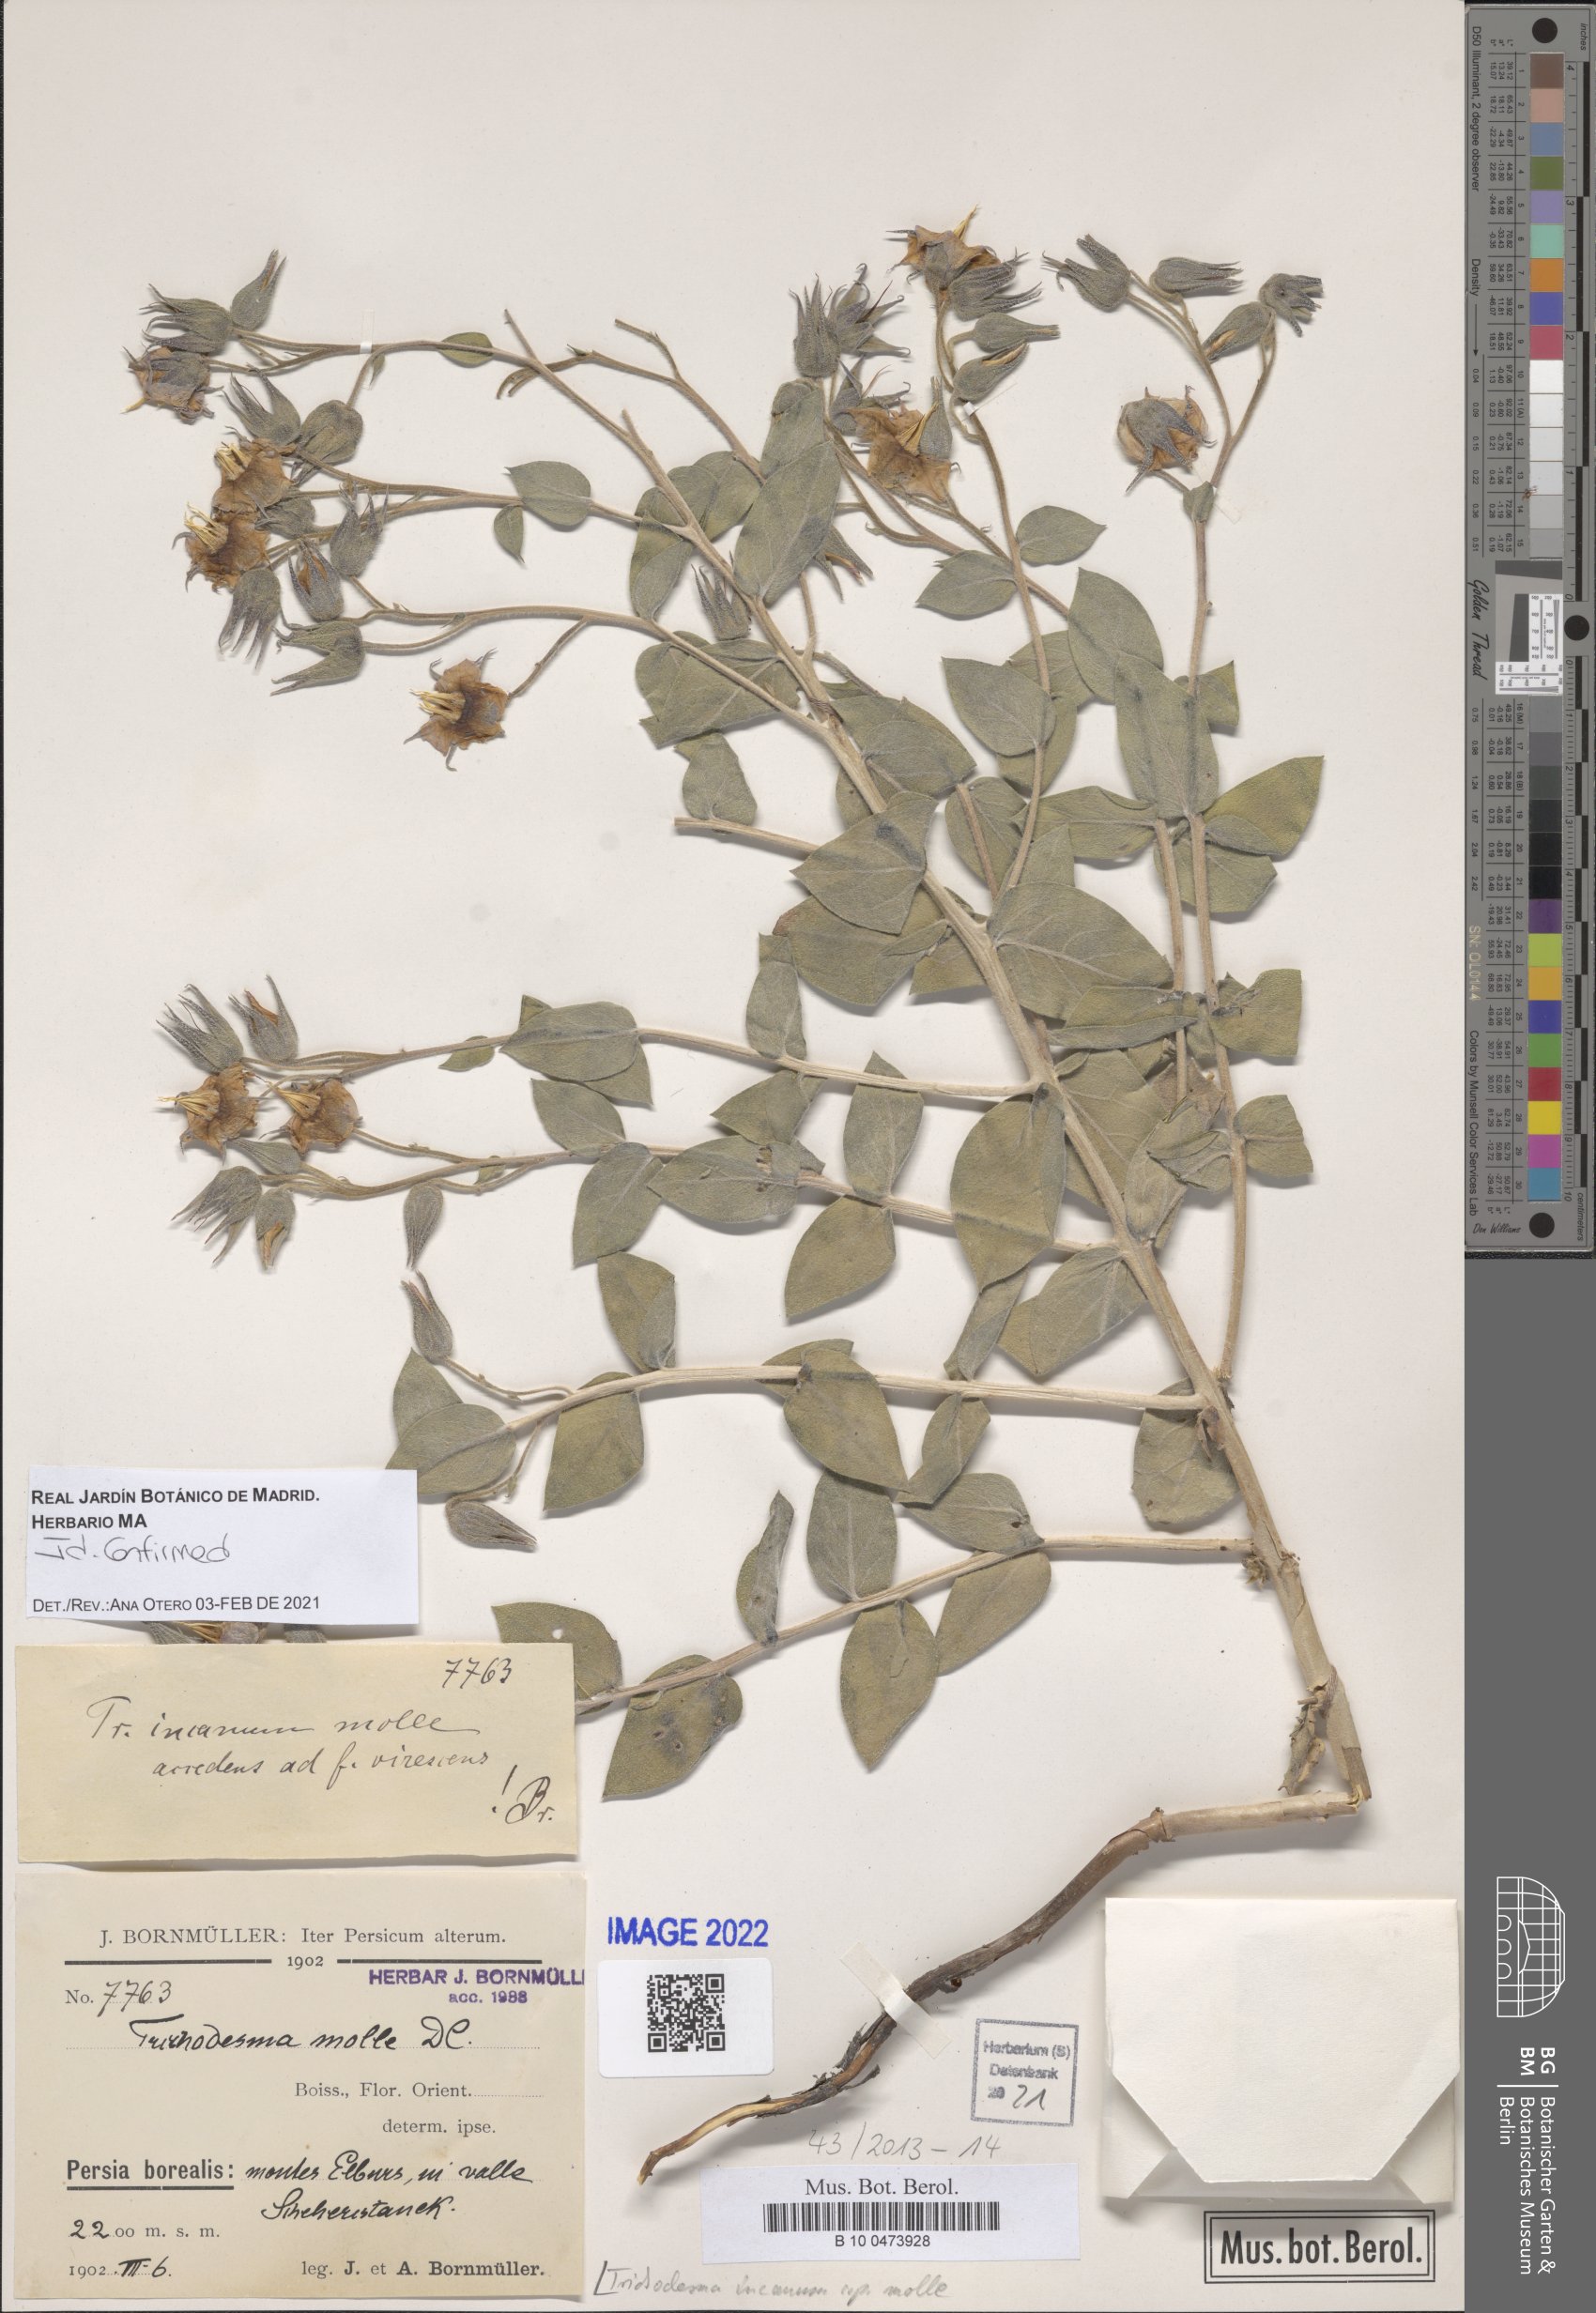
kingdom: Plantae
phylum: Tracheophyta
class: Magnoliopsida
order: Boraginales
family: Boraginaceae
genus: Trichodesma
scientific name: Trichodesma incanum
